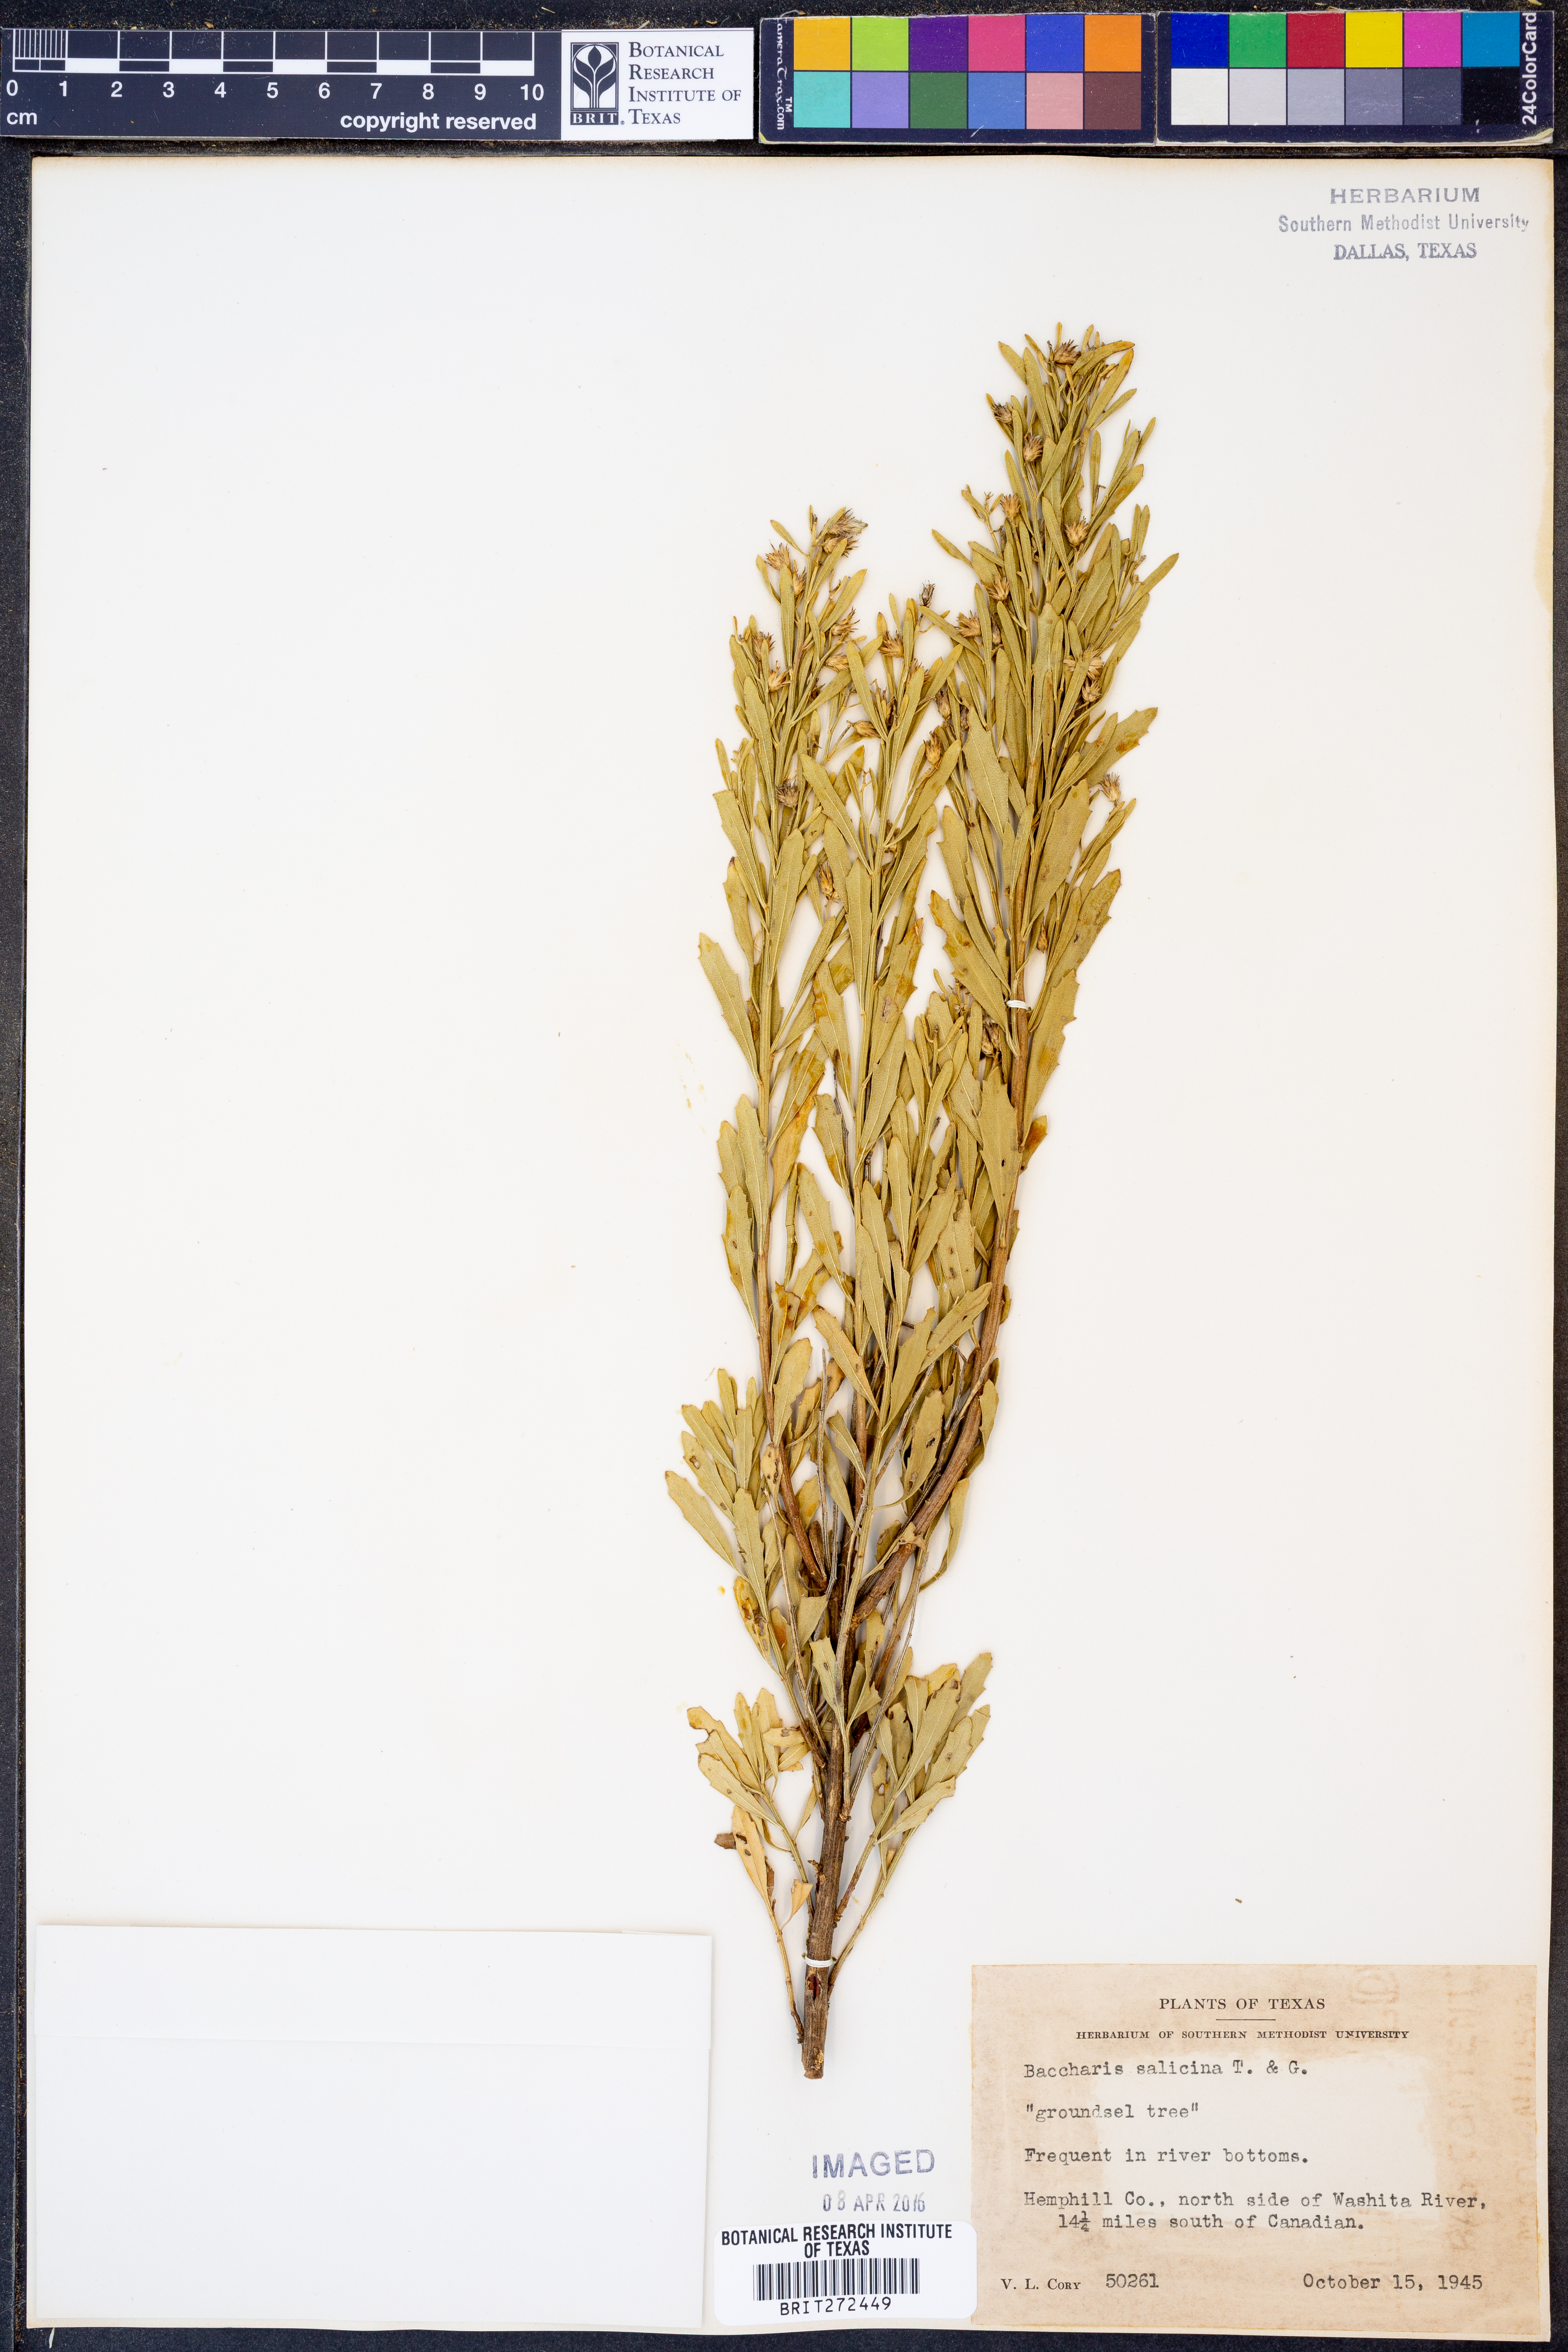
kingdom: Plantae
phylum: Tracheophyta
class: Magnoliopsida
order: Asterales
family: Asteraceae
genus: Baccharis
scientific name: Baccharis salicina
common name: Willow baccharis
